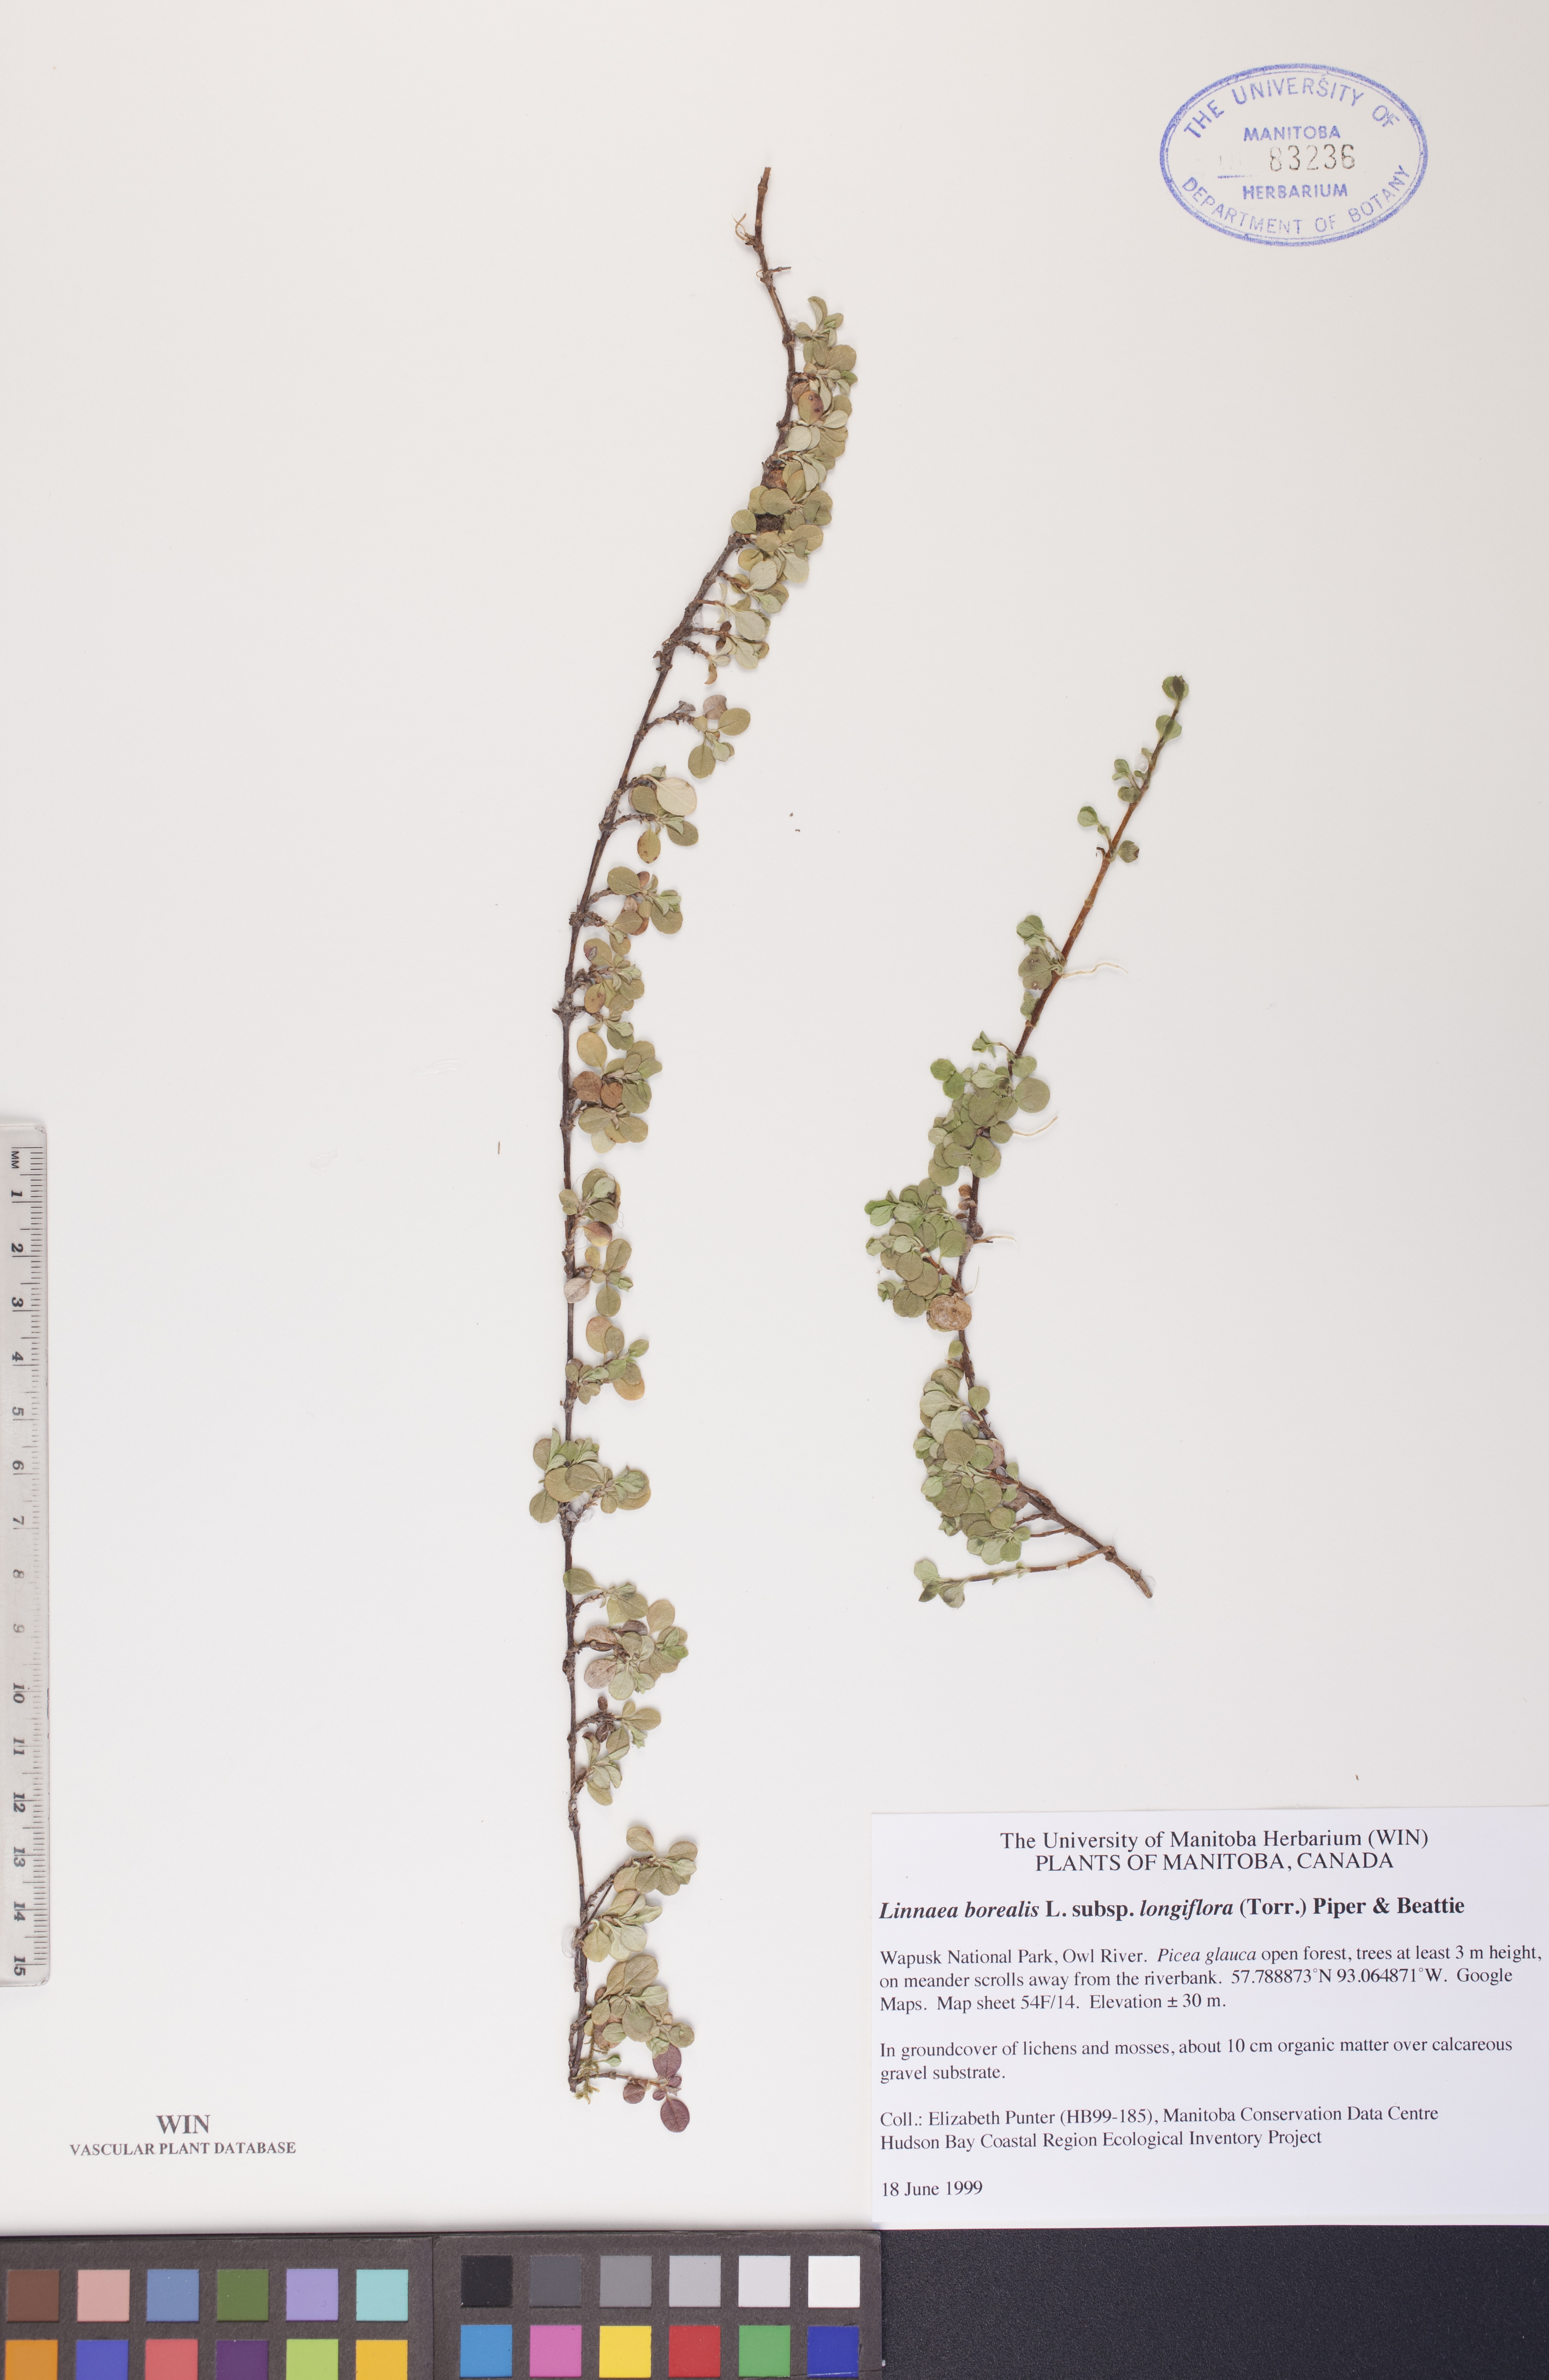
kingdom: Plantae
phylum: Tracheophyta
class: Magnoliopsida
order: Dipsacales
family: Caprifoliaceae
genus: Linnaea
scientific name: Linnaea borealis
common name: Twinflower
